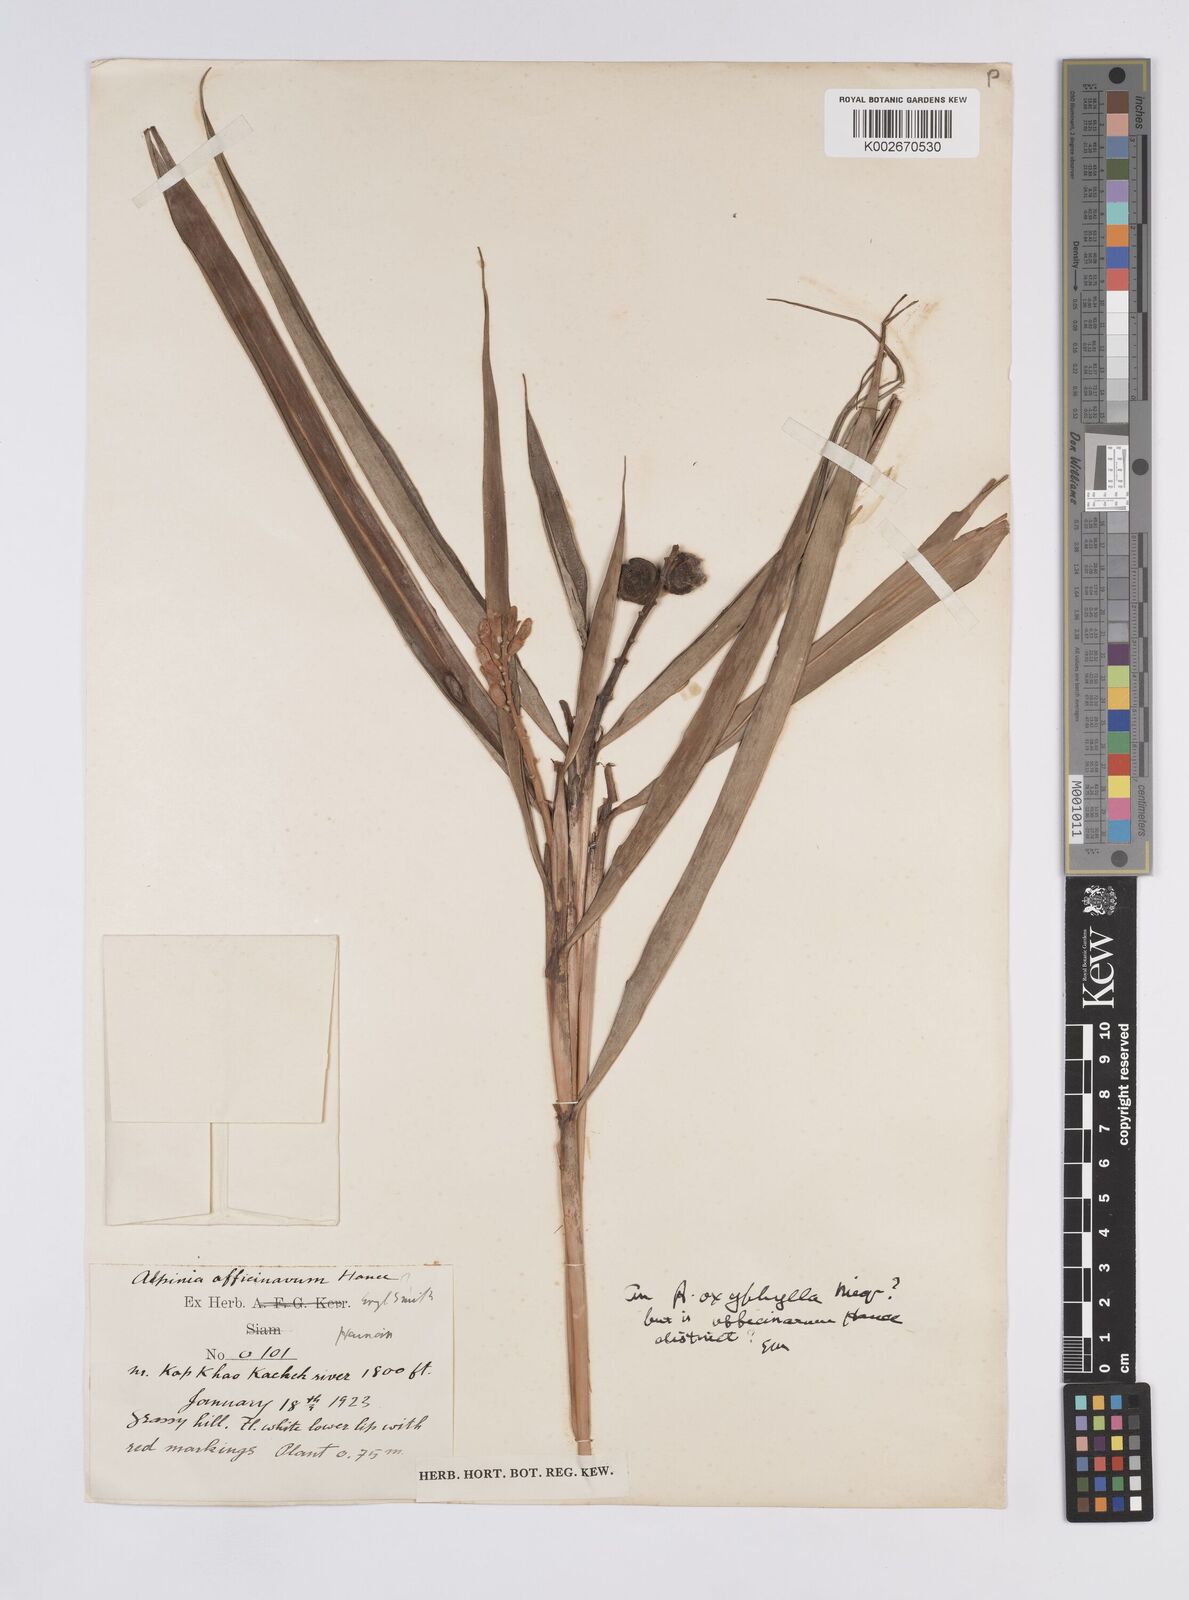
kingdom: Plantae
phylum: Tracheophyta
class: Liliopsida
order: Zingiberales
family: Zingiberaceae
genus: Alpinia
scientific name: Alpinia oxyphylla
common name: Sharp-leaf galangal
